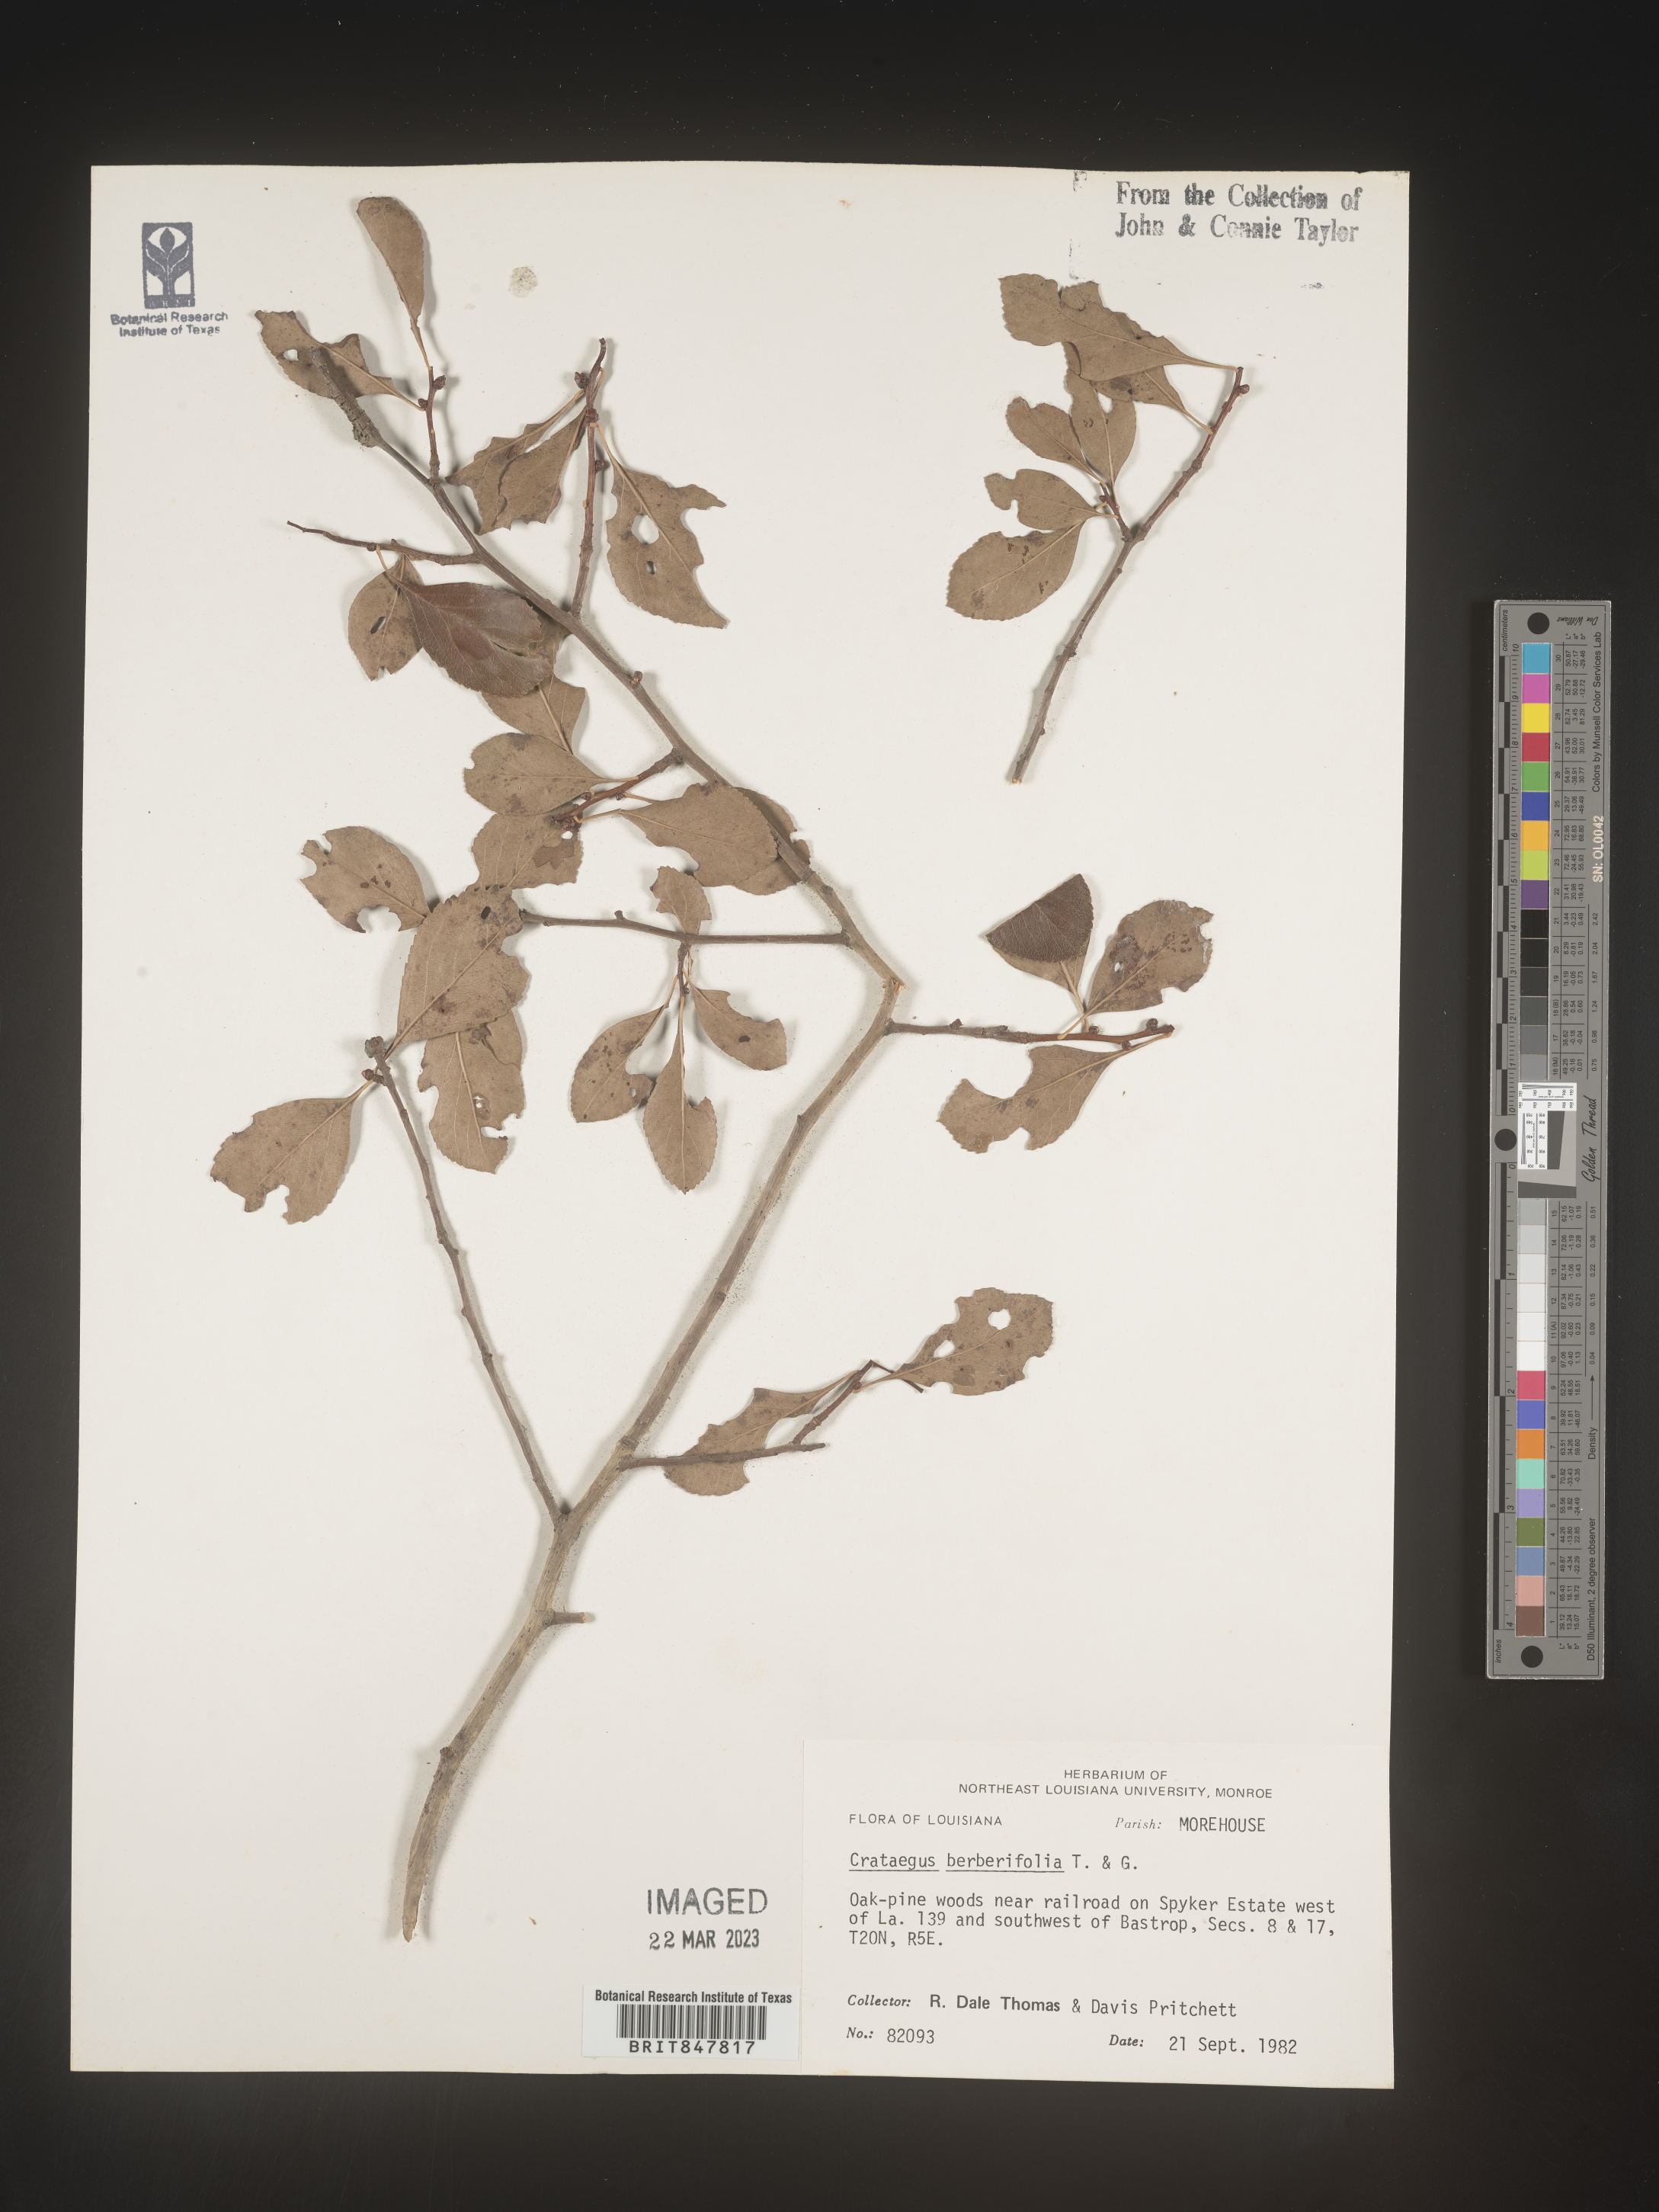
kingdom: Plantae
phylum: Tracheophyta
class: Magnoliopsida
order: Rosales
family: Rosaceae
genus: Crataegus
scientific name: Crataegus
